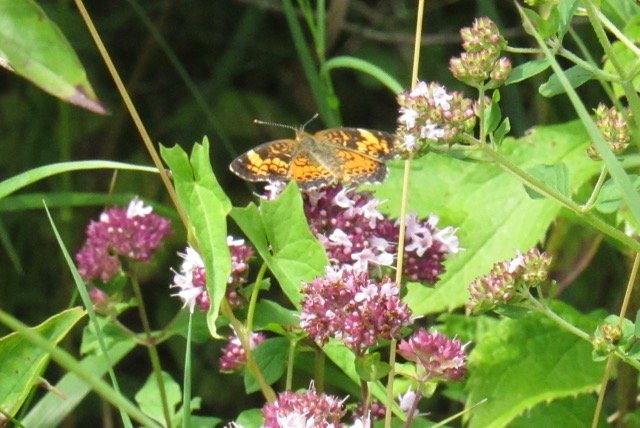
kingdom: Animalia
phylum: Arthropoda
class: Insecta
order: Lepidoptera
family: Nymphalidae
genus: Phyciodes
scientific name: Phyciodes tharos
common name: Pearl Crescent
